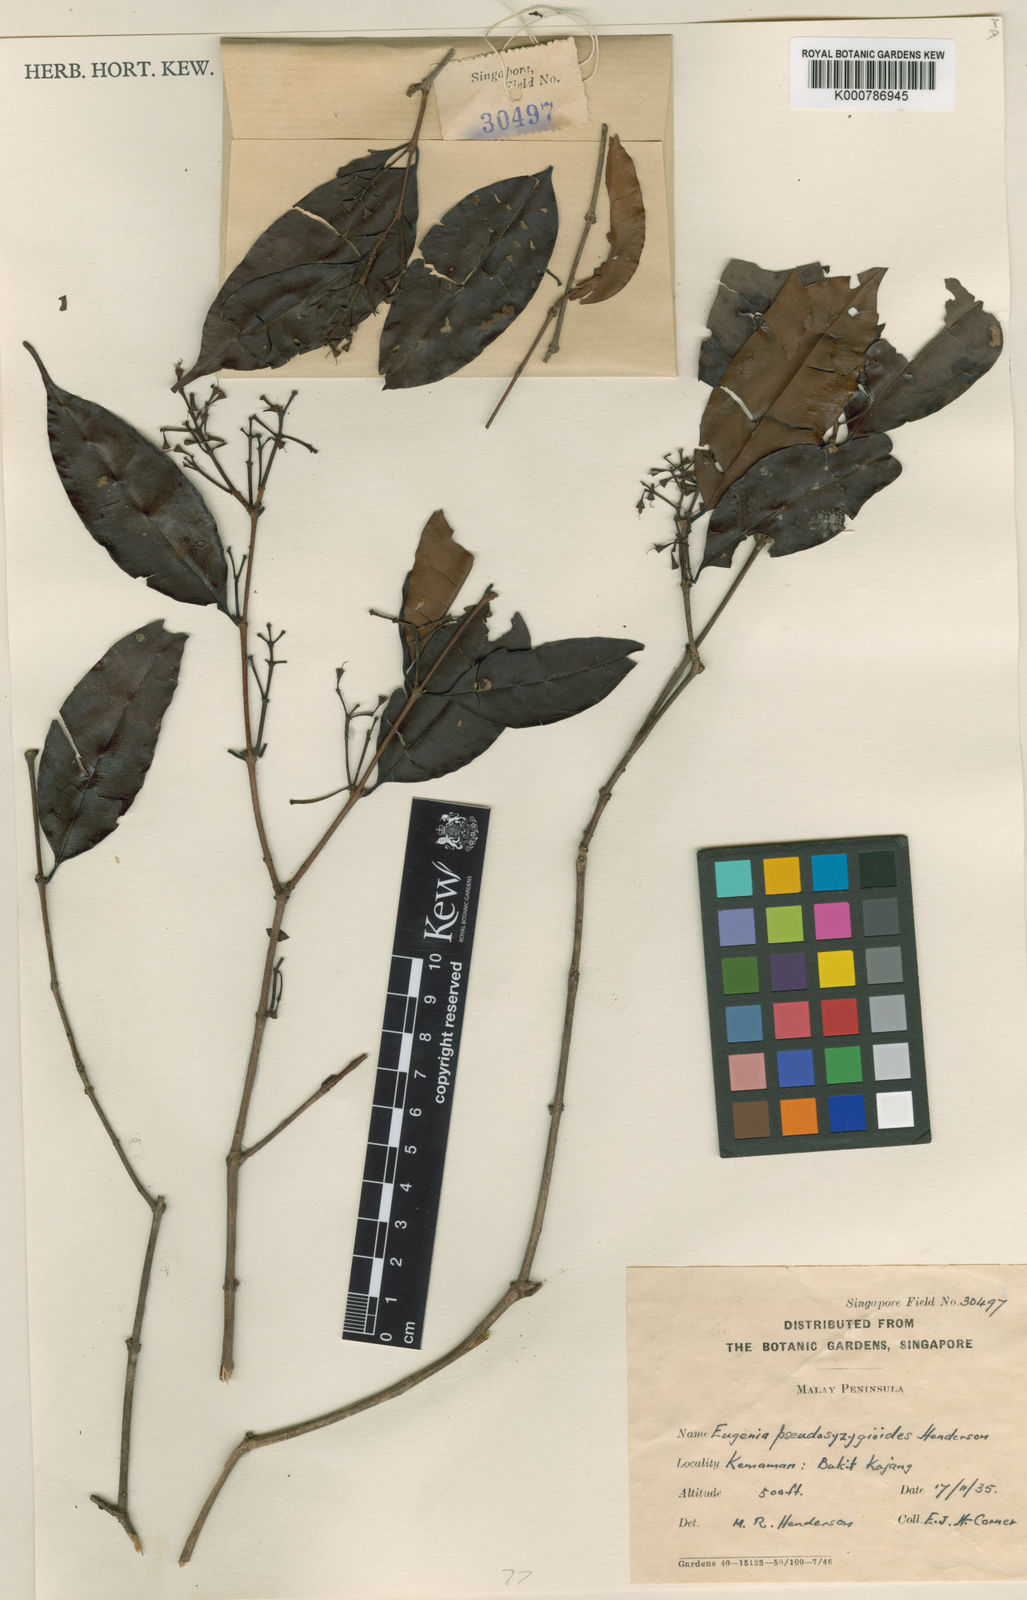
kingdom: Plantae
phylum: Tracheophyta
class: Magnoliopsida
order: Myrtales
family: Myrtaceae
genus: Syzygium
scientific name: Syzygium
